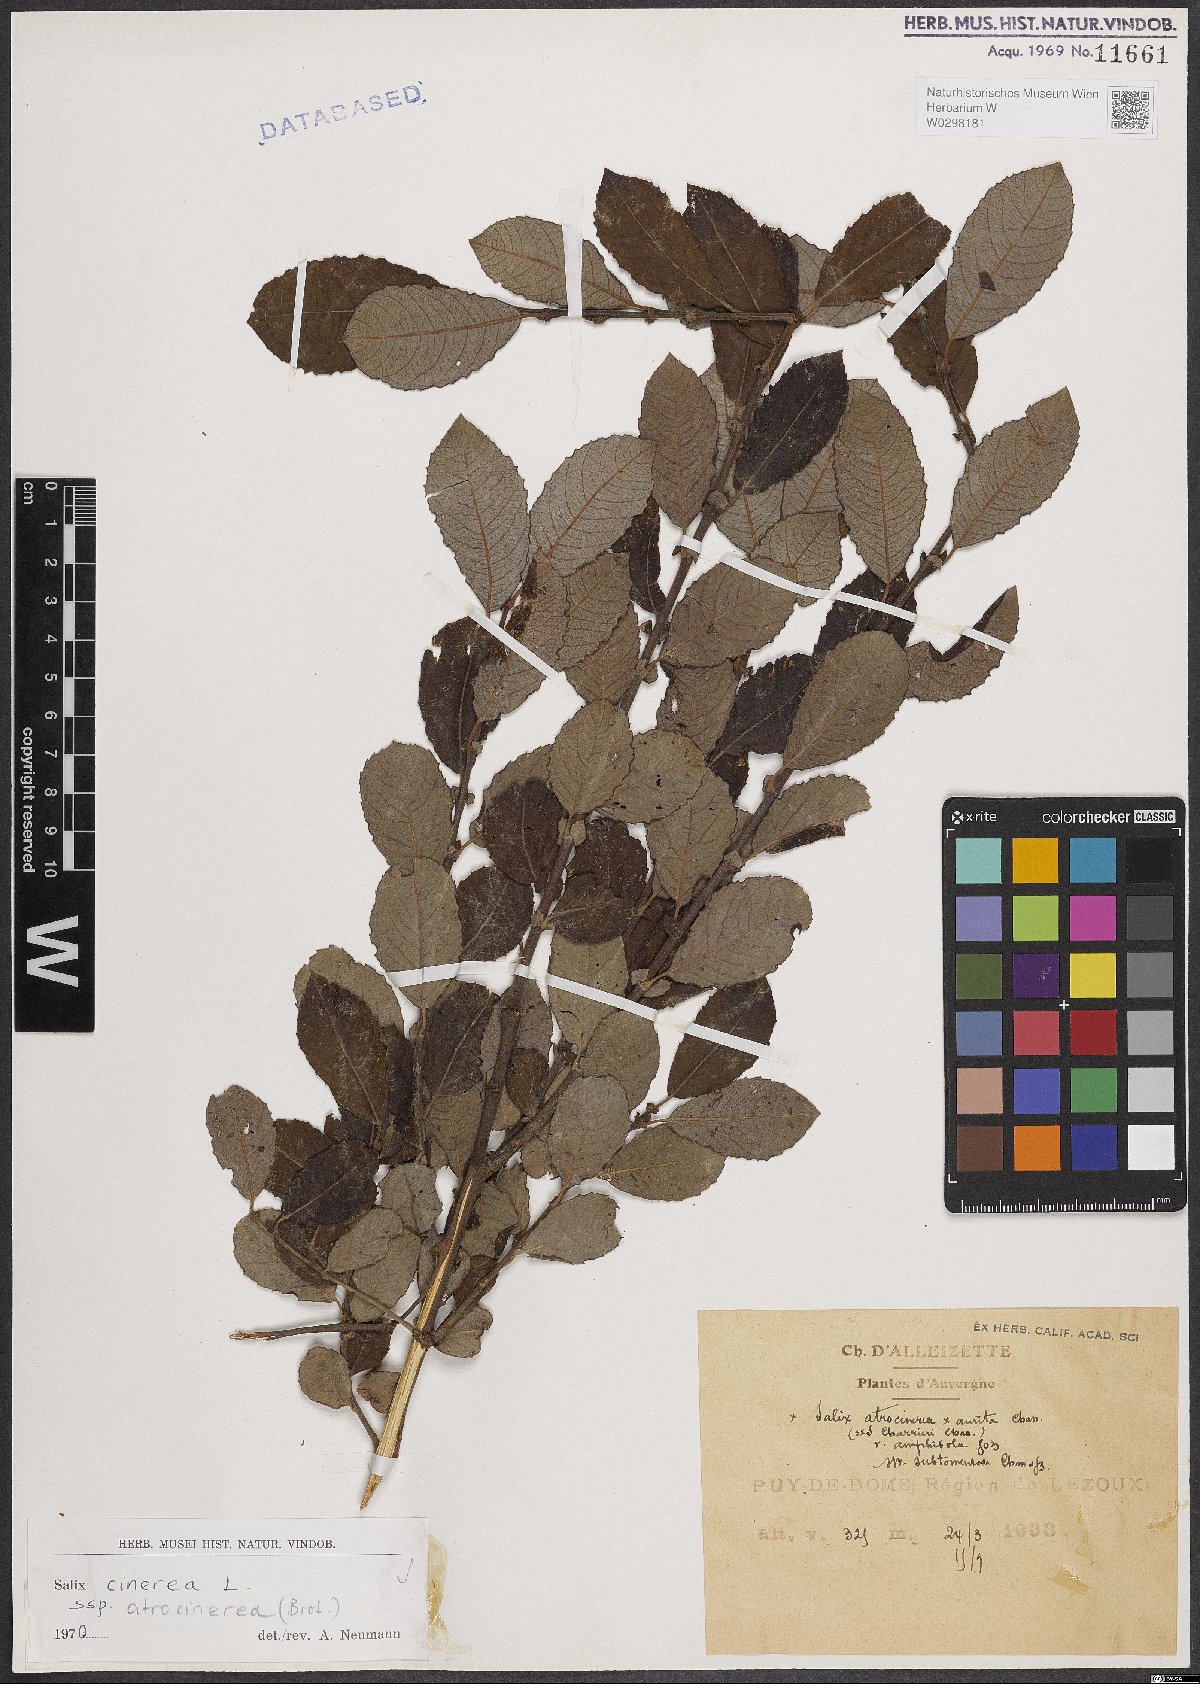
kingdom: Plantae
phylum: Tracheophyta
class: Magnoliopsida
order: Ericales
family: Primulaceae
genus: Primula
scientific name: Primula auricula
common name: Auricula
